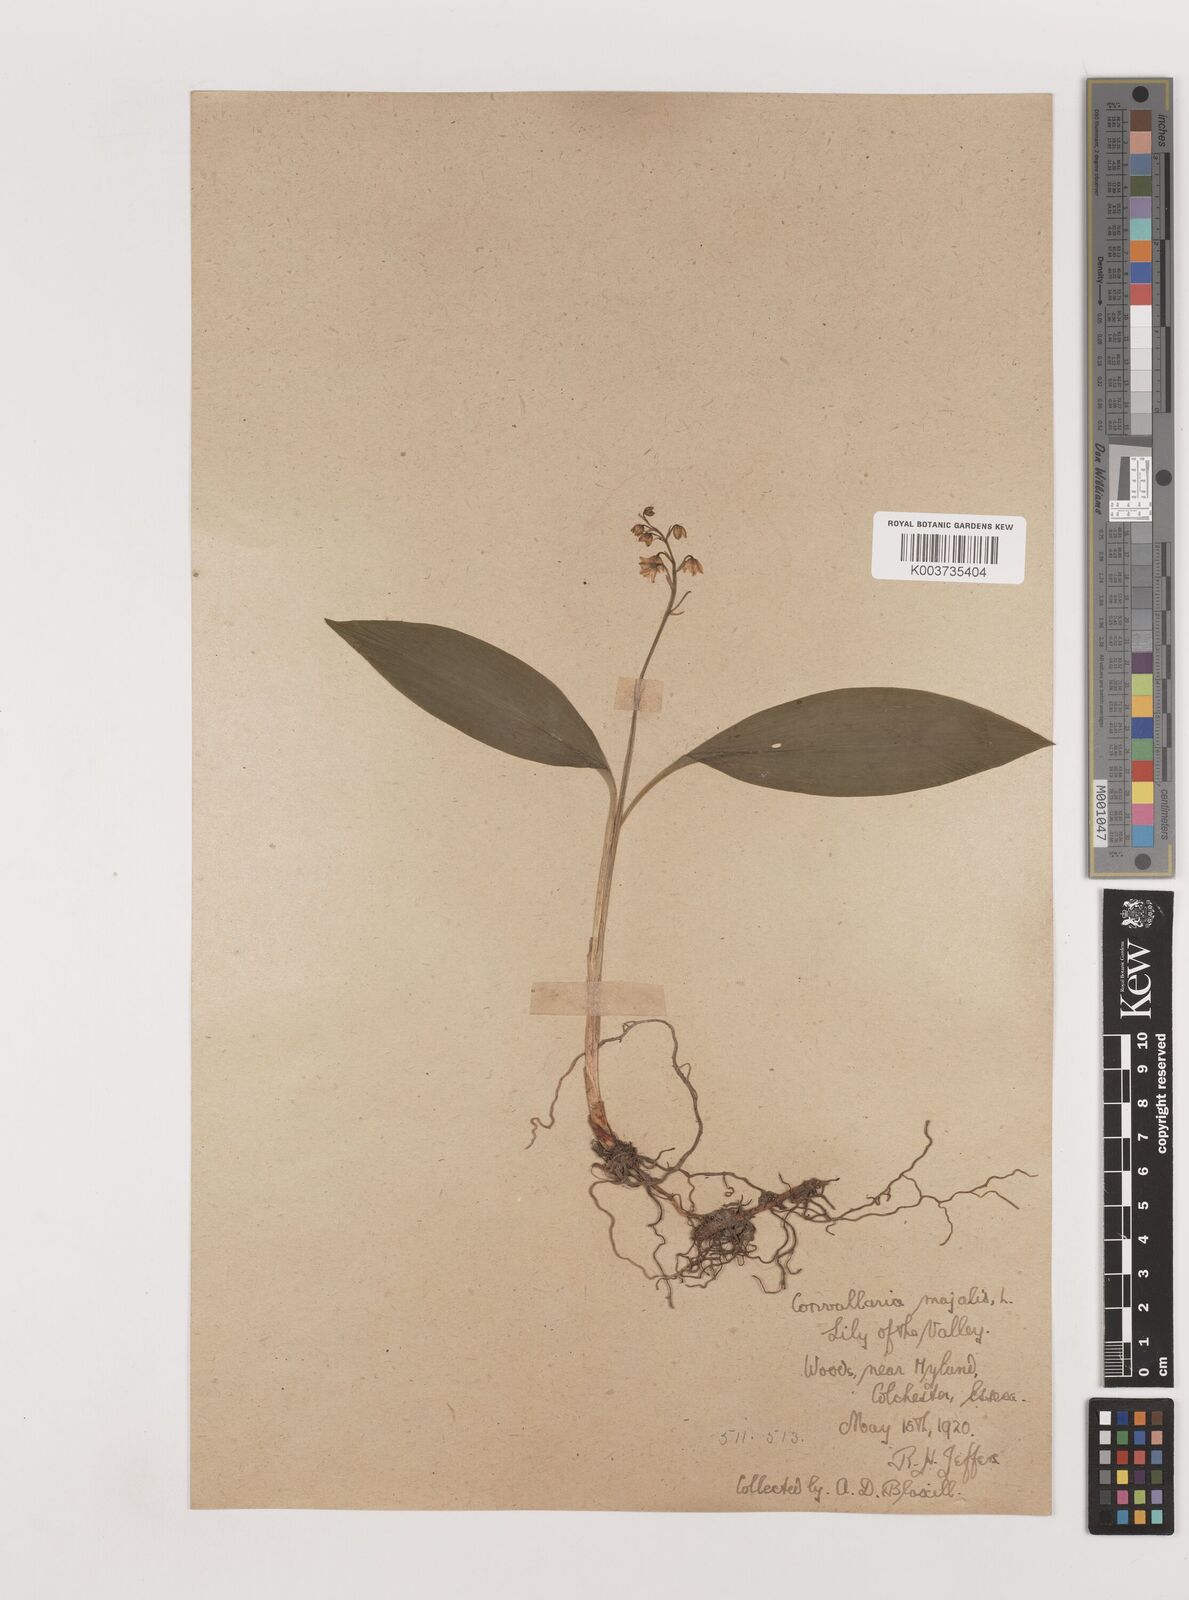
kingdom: Plantae
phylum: Tracheophyta
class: Liliopsida
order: Asparagales
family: Asparagaceae
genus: Convallaria
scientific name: Convallaria majalis
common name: Lily-of-the-valley
